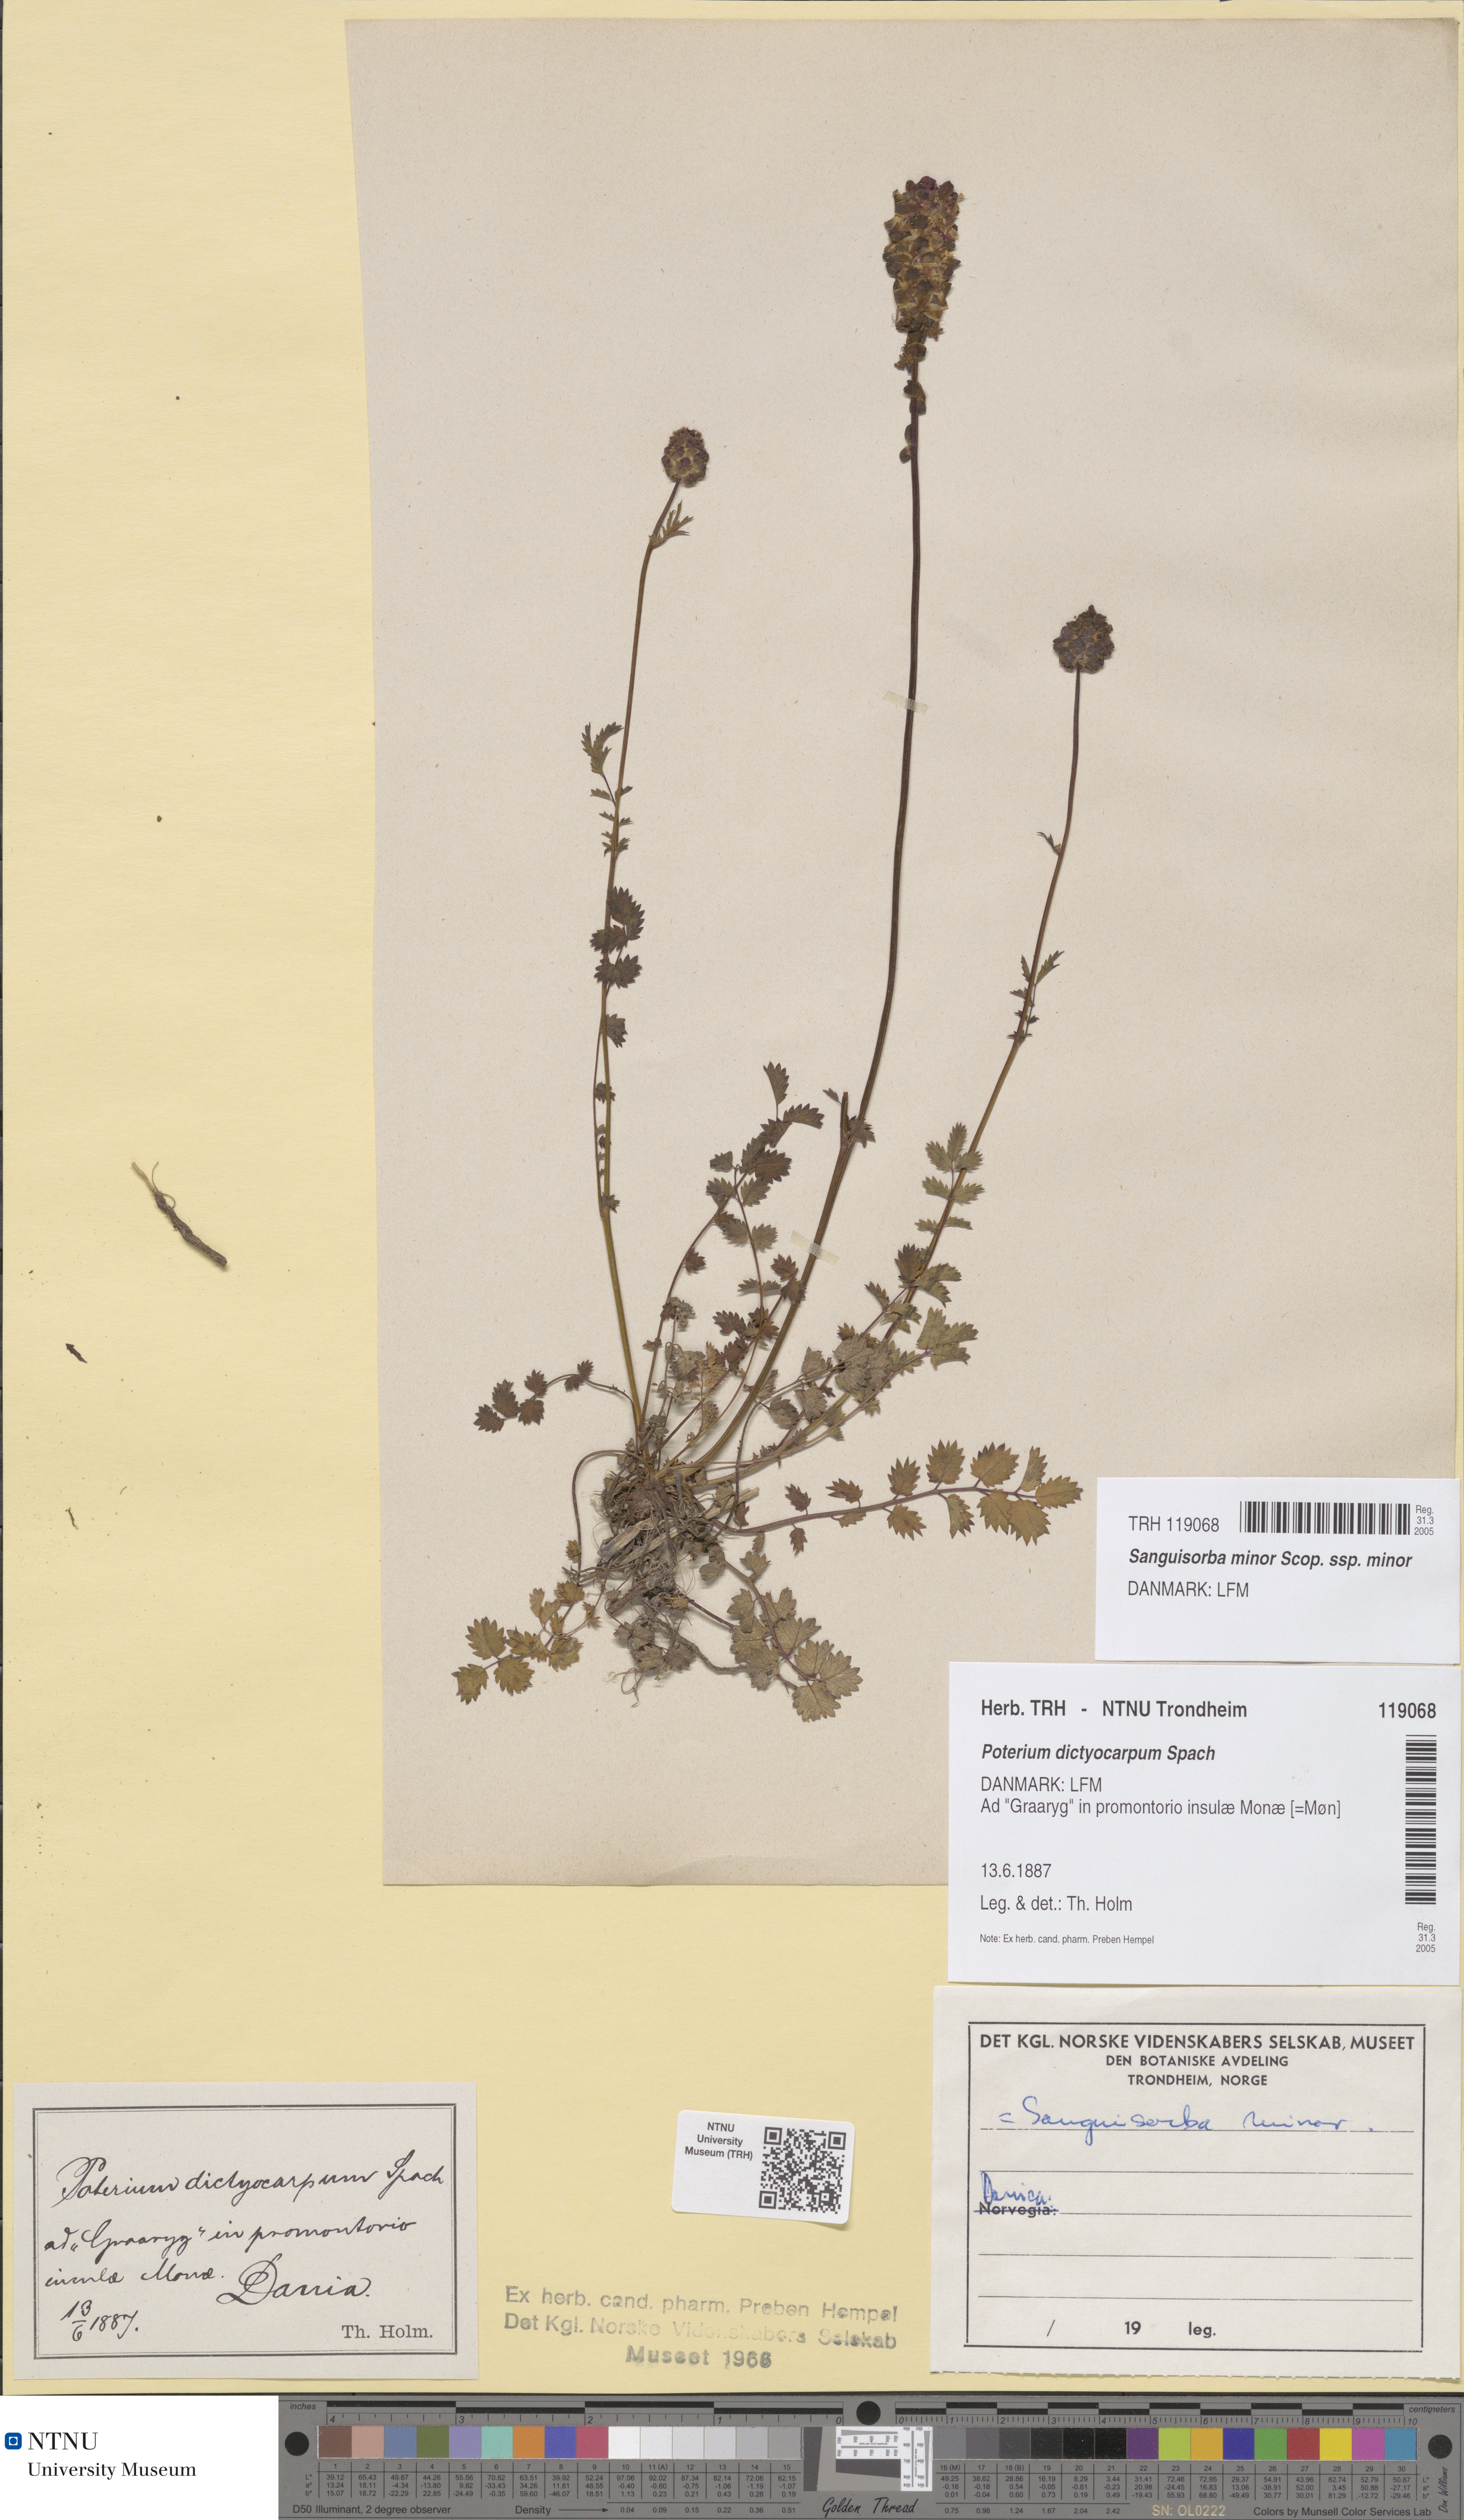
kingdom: Plantae
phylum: Tracheophyta
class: Magnoliopsida
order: Rosales
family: Rosaceae
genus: Poterium
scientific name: Poterium sanguisorba
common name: Salad burnet
